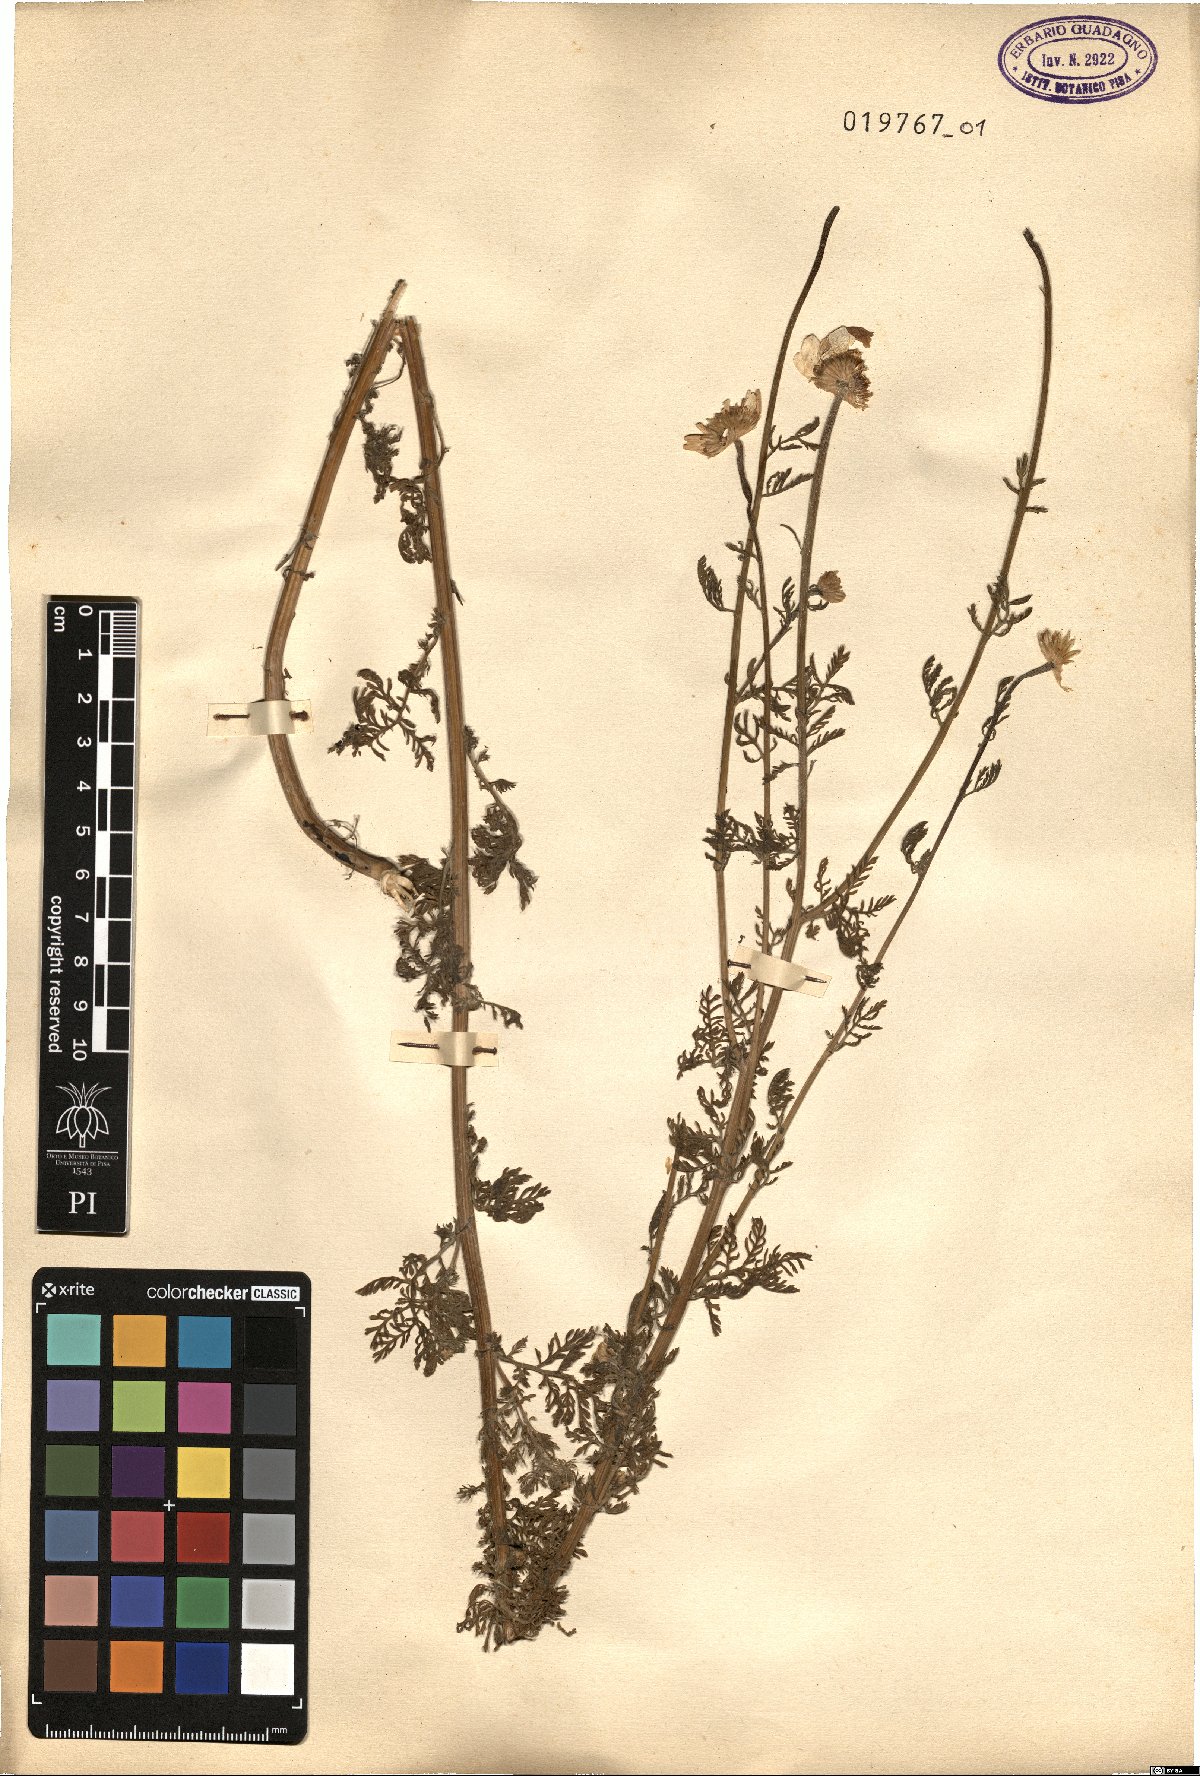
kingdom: Plantae
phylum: Tracheophyta
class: Magnoliopsida
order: Asterales
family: Asteraceae
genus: Cota
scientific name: Cota altissima
